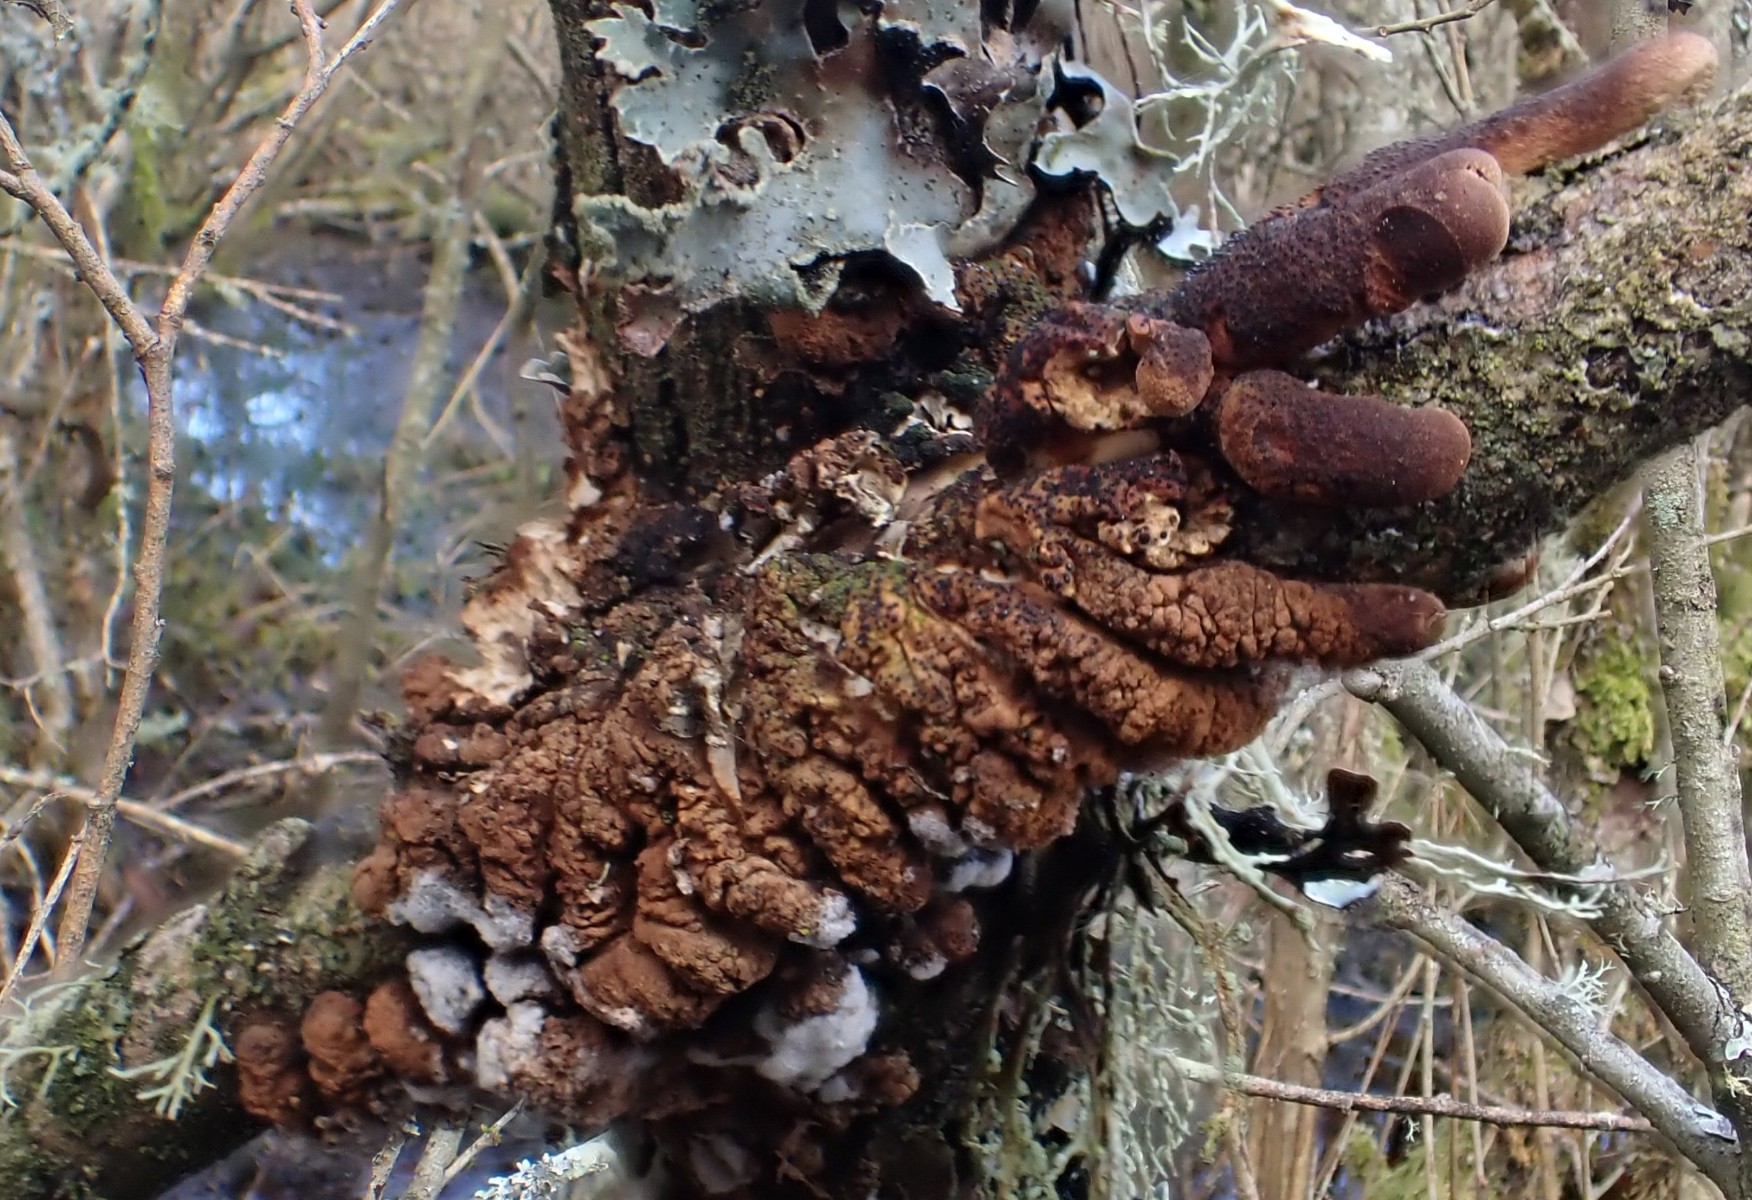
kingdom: Fungi
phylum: Ascomycota
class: Sordariomycetes
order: Hypocreales
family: Hypocreaceae
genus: Hypocreopsis
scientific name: Hypocreopsis lichenoides
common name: pilfinger
